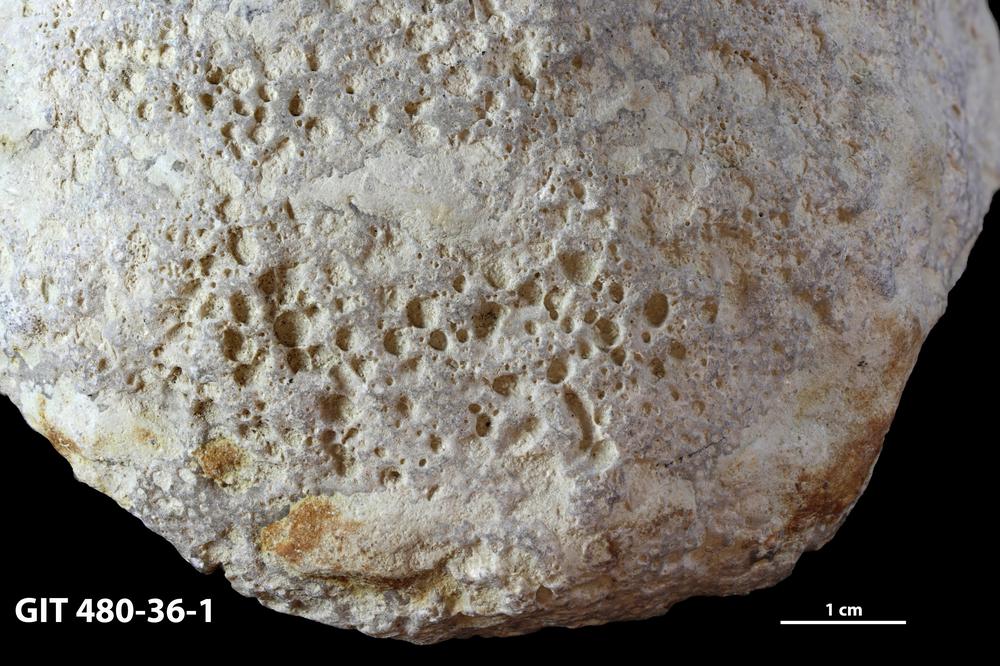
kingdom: Animalia
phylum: Sipuncula
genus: Trypanites
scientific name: Trypanites
